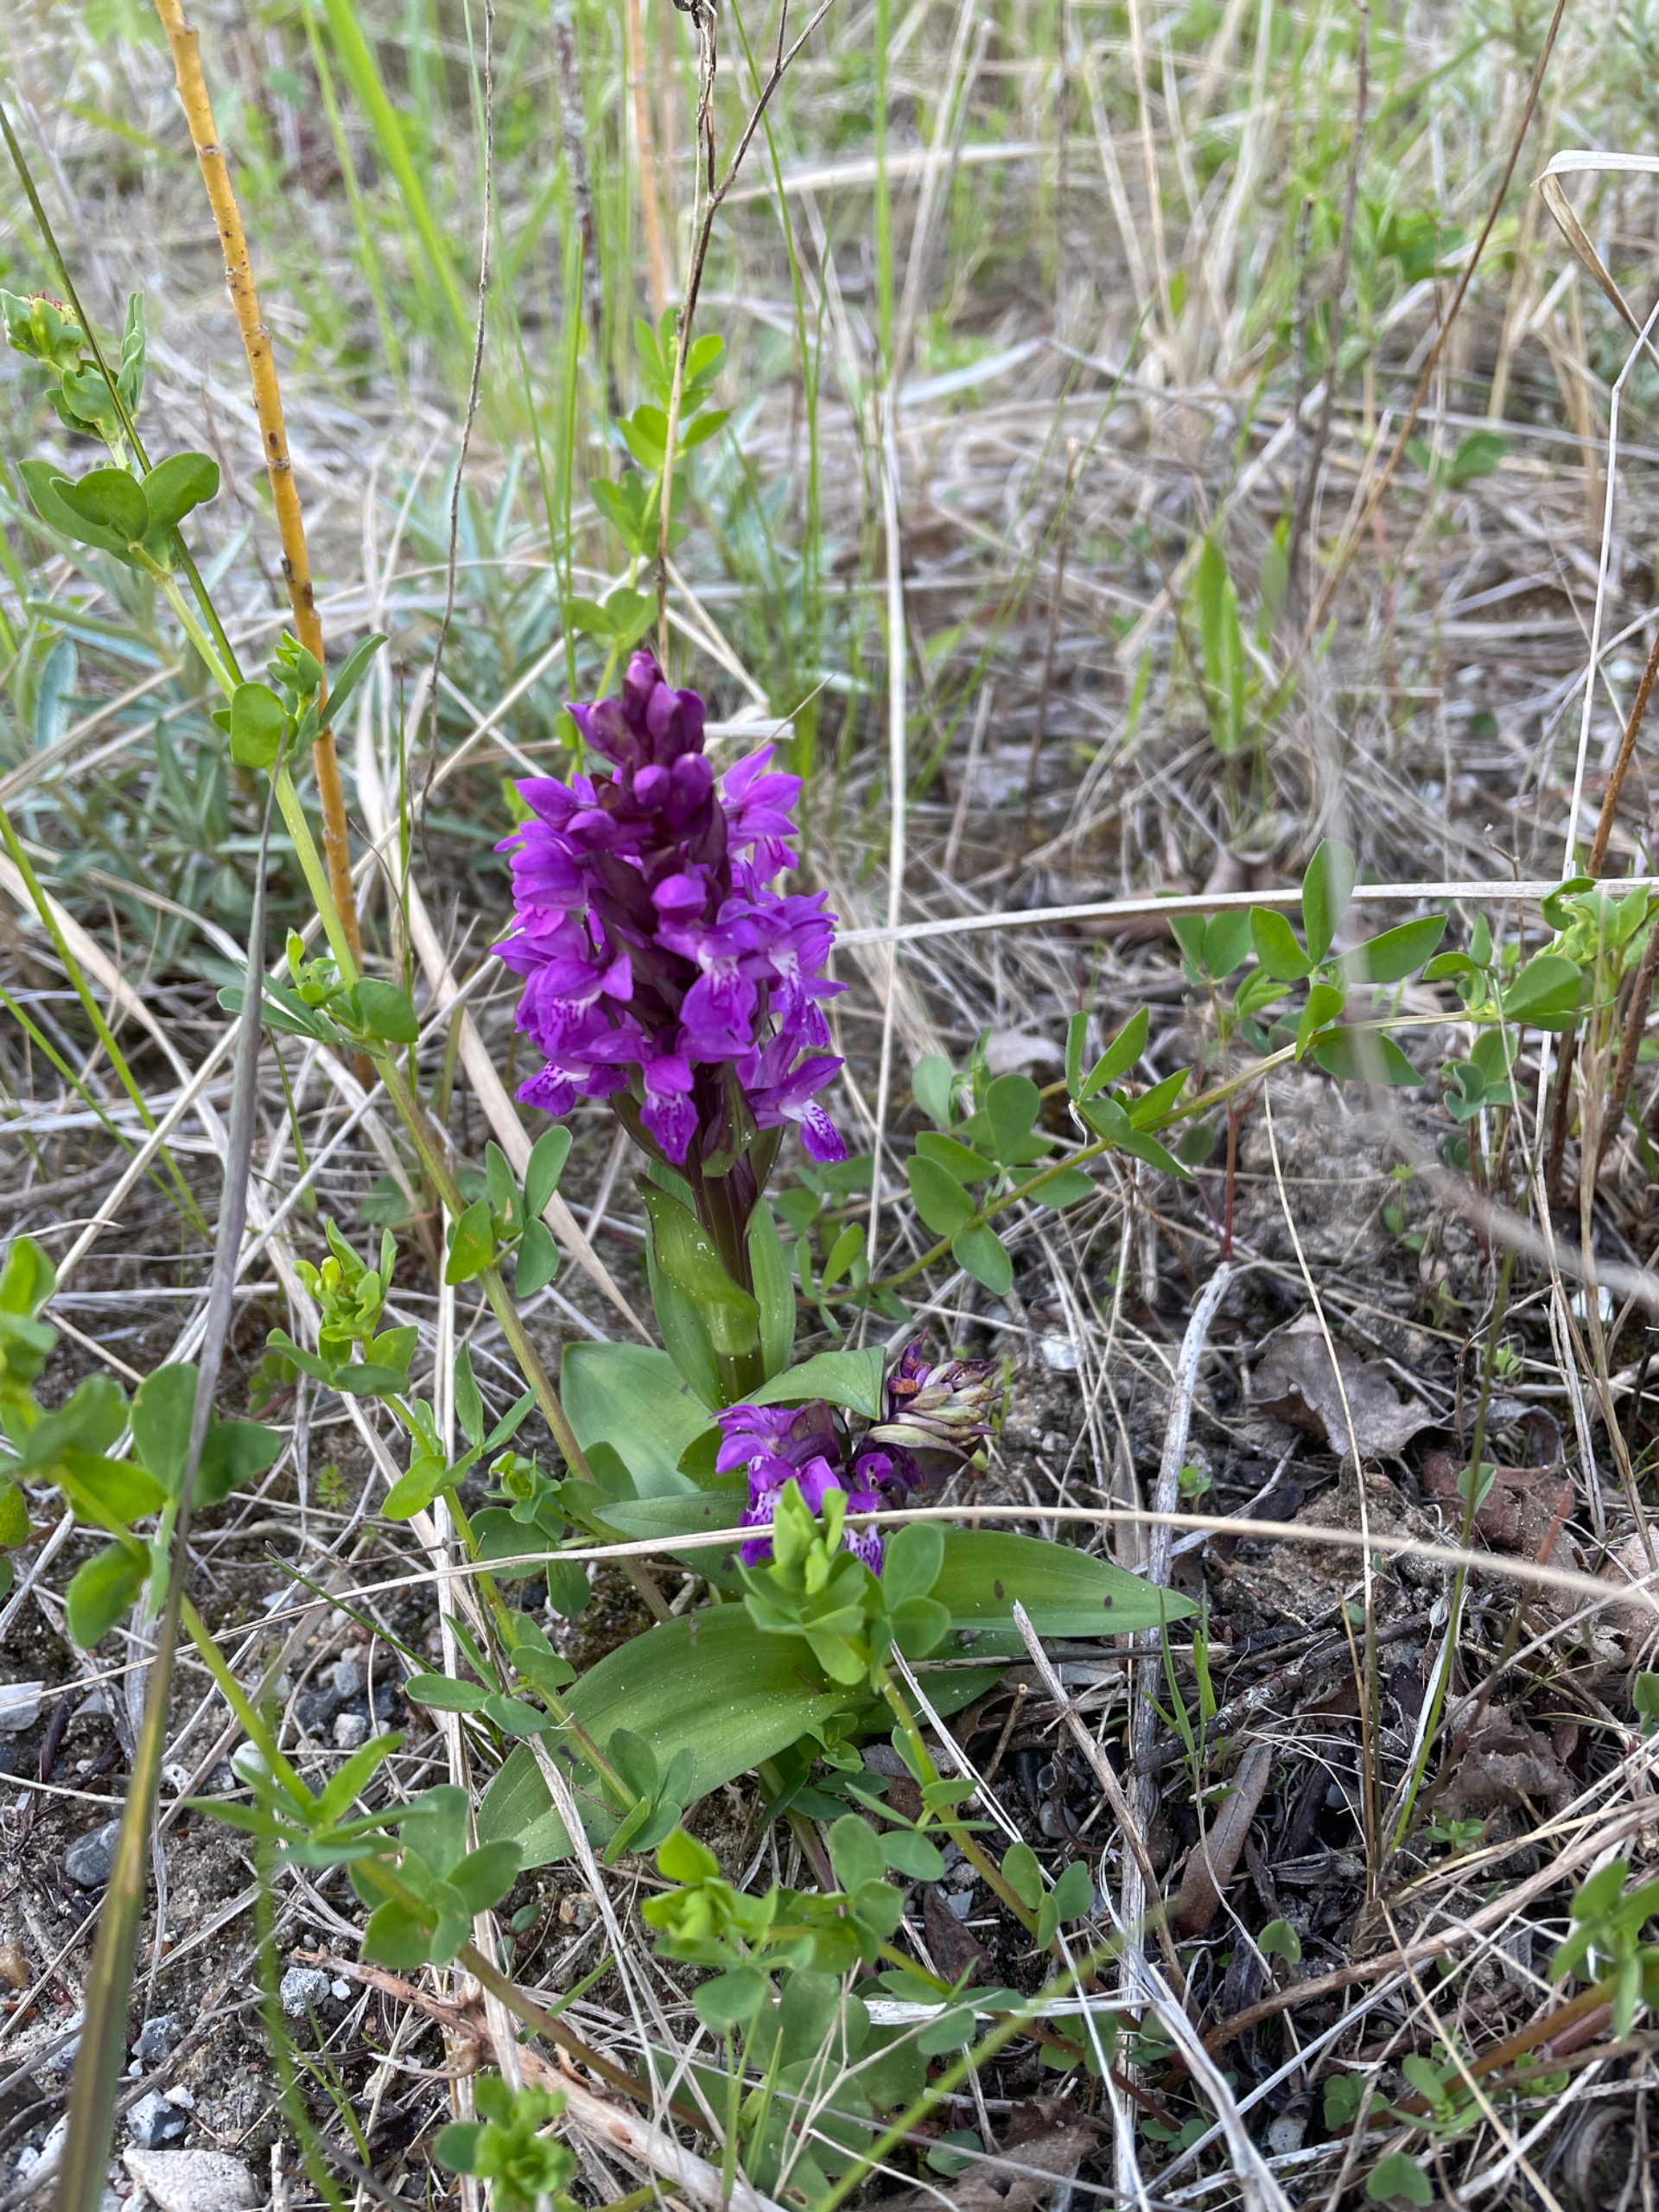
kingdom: Plantae
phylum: Tracheophyta
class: Liliopsida
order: Asparagales
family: Orchidaceae
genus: Dactylorhiza
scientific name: Dactylorhiza majalis
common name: Maj-gøgeurt
